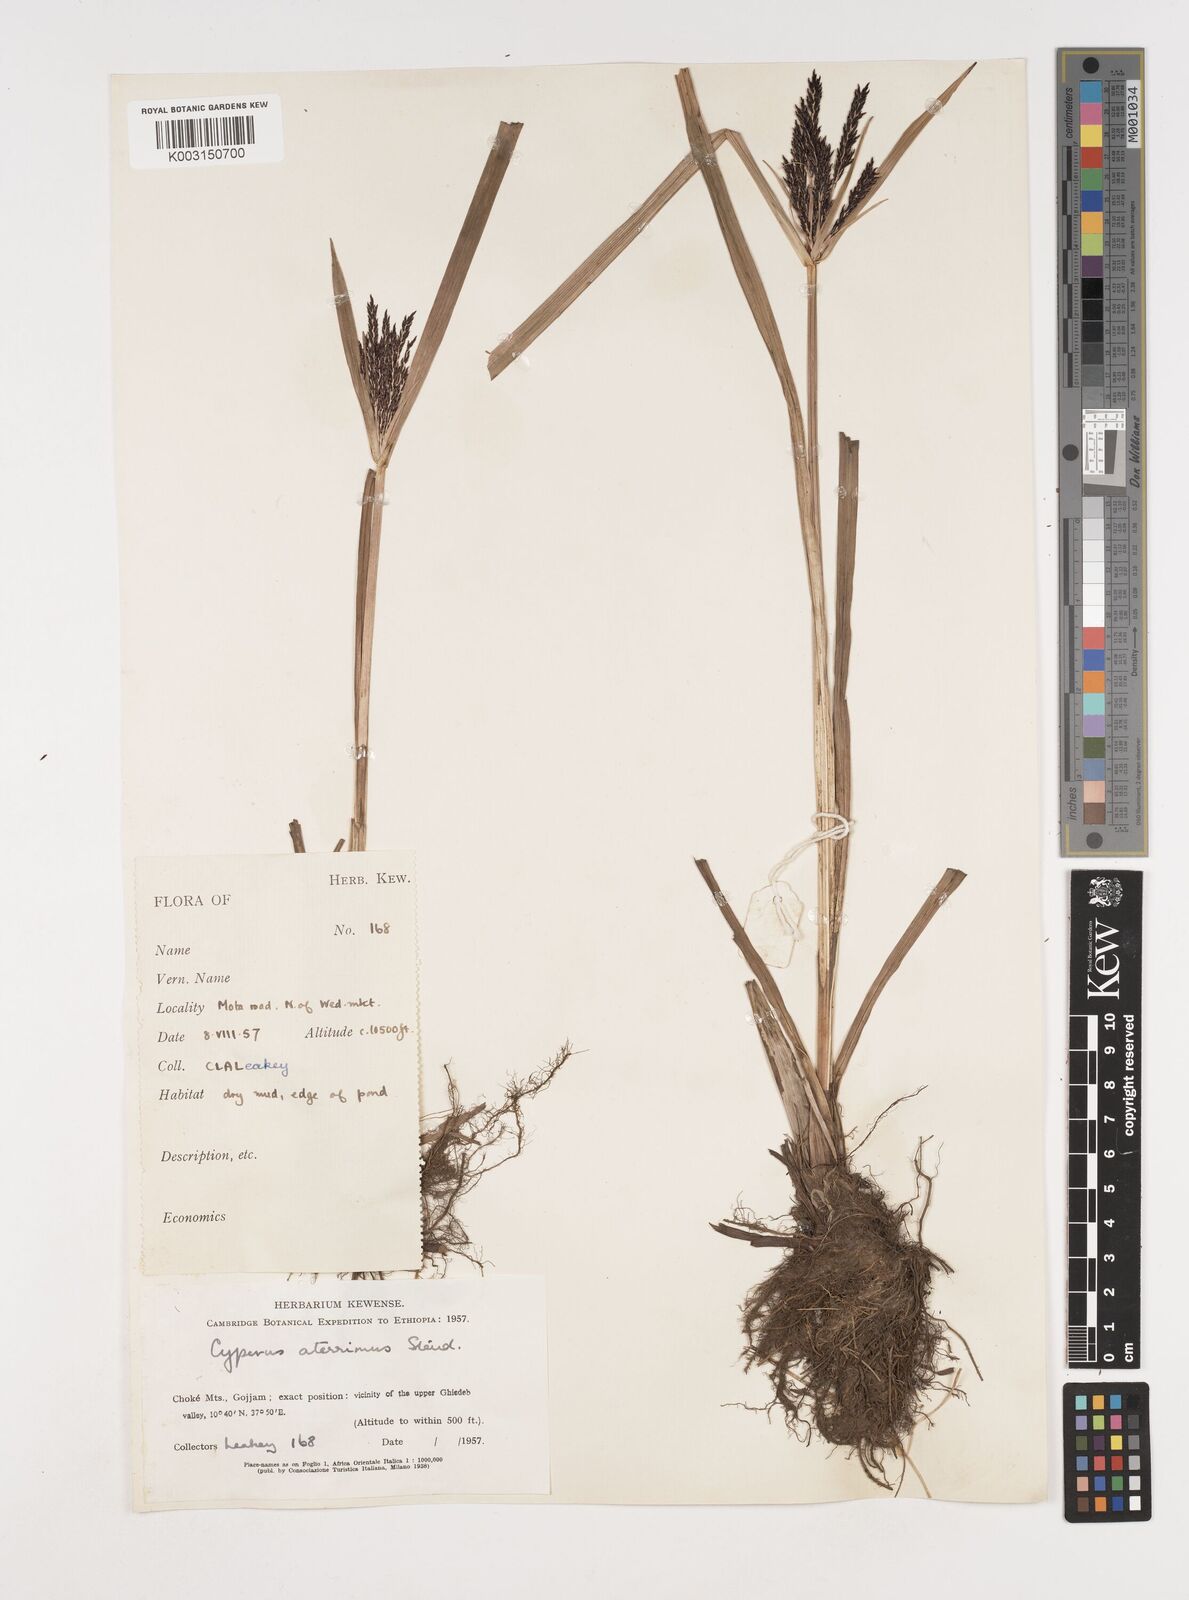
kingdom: Plantae
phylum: Tracheophyta
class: Liliopsida
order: Poales
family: Cyperaceae
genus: Cyperus
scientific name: Cyperus aterrimus
